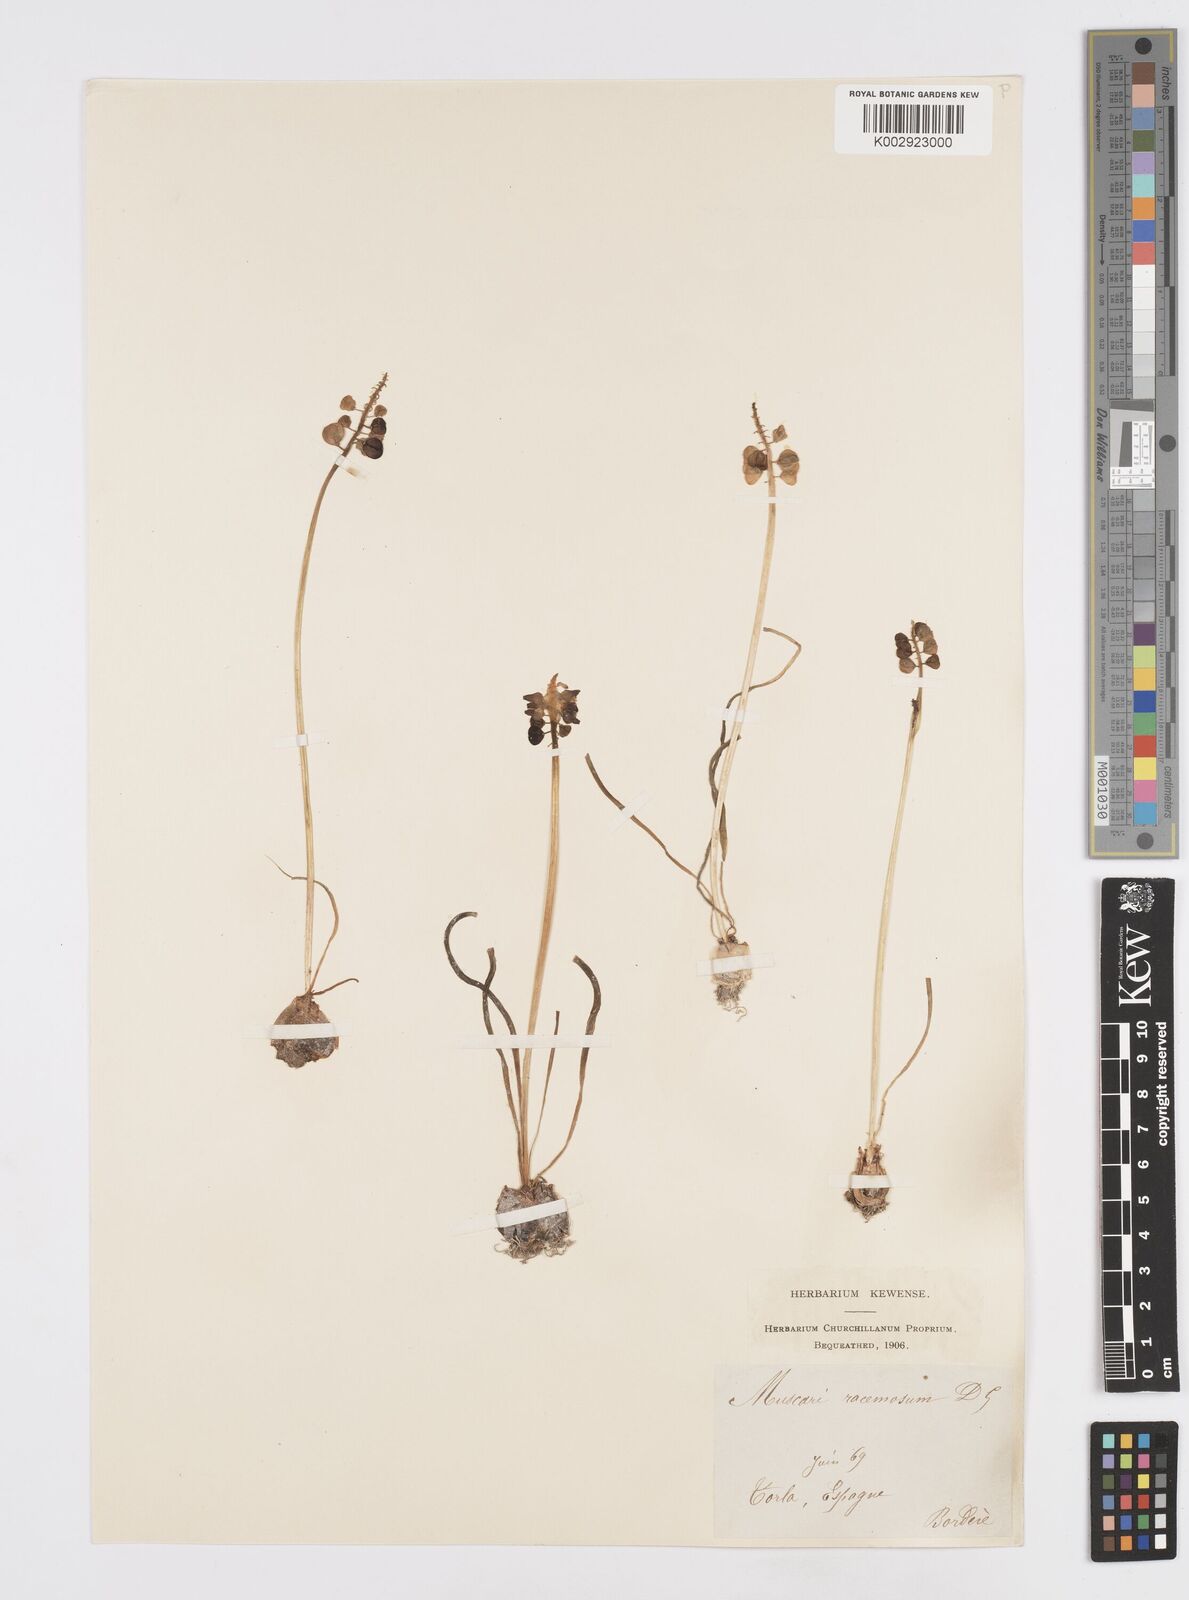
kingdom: Plantae
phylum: Tracheophyta
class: Liliopsida
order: Asparagales
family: Asparagaceae
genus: Muscarimia
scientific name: Muscarimia muscari
